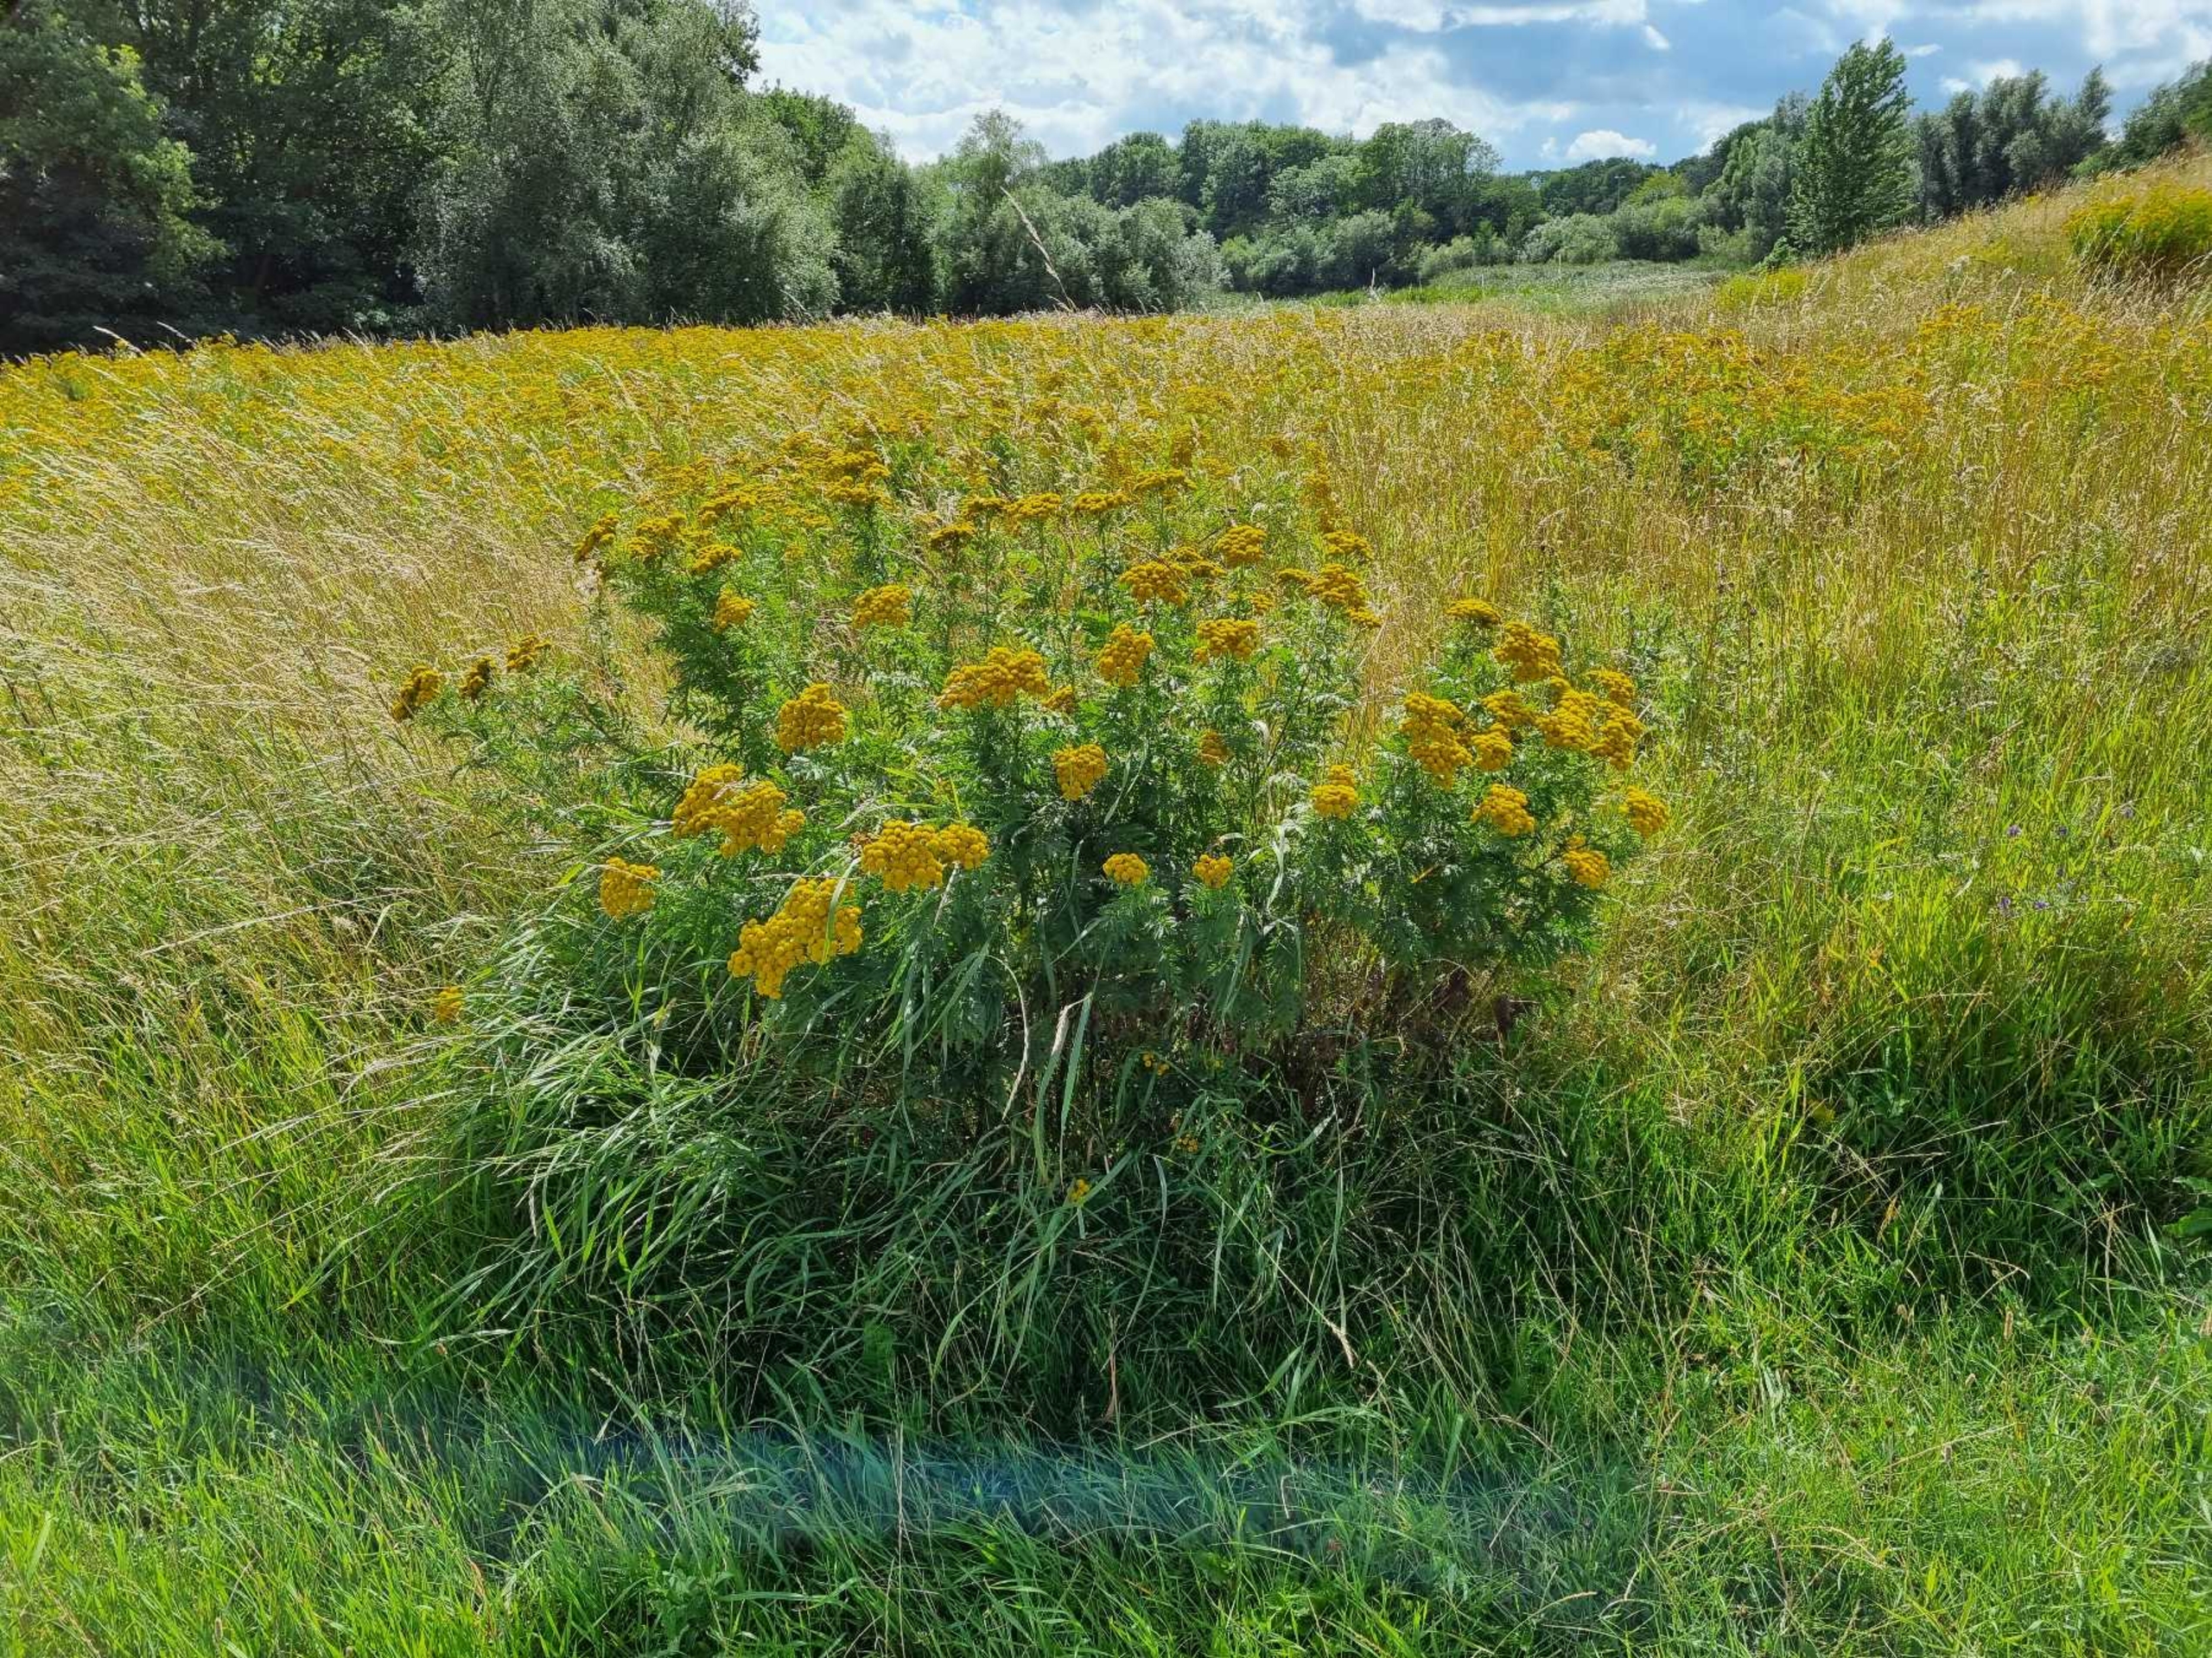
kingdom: Plantae
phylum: Tracheophyta
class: Magnoliopsida
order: Asterales
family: Asteraceae
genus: Tanacetum
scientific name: Tanacetum vulgare
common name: Rejnfan
